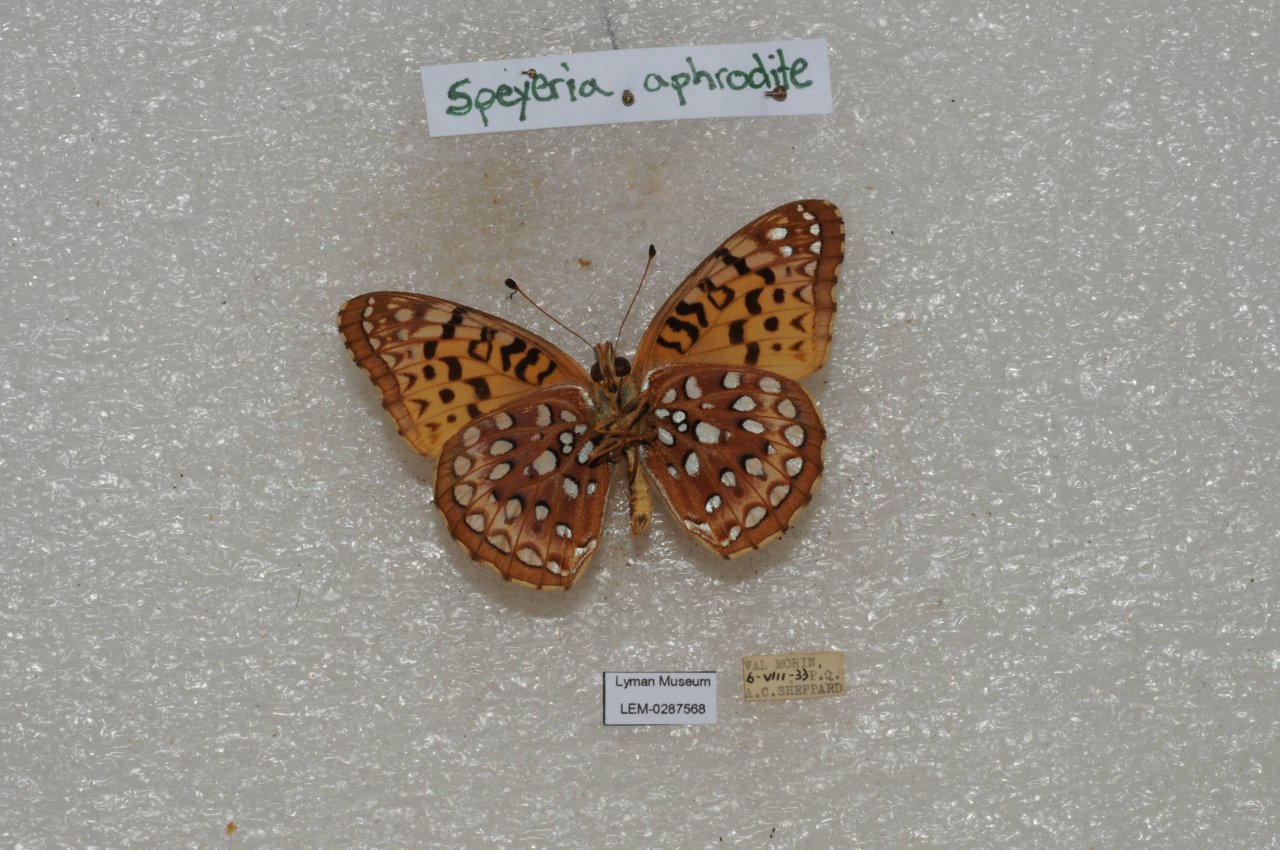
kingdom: Animalia
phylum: Arthropoda
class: Insecta
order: Lepidoptera
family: Nymphalidae
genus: Speyeria
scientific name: Speyeria aphrodite
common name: Aphrodite Fritillary
